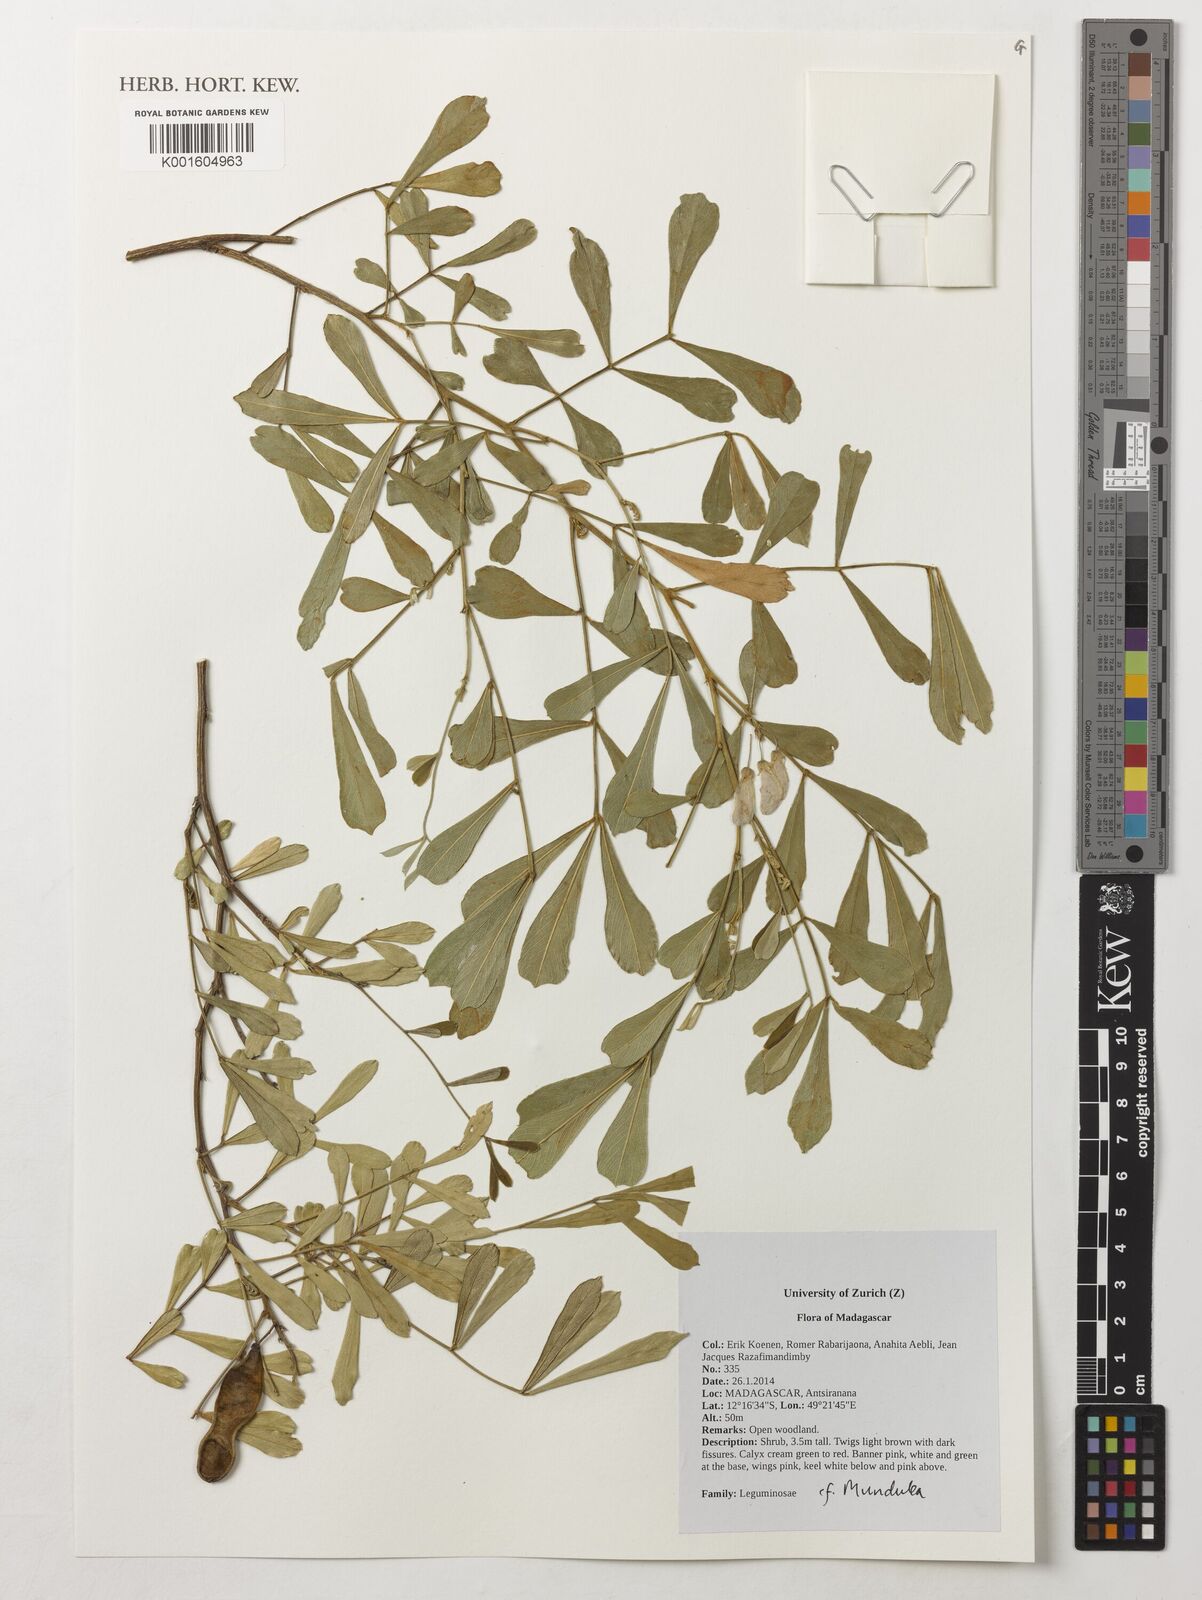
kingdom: Plantae
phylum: Tracheophyta
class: Magnoliopsida
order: Fabales
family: Fabaceae
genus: Mundulea
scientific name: Mundulea
